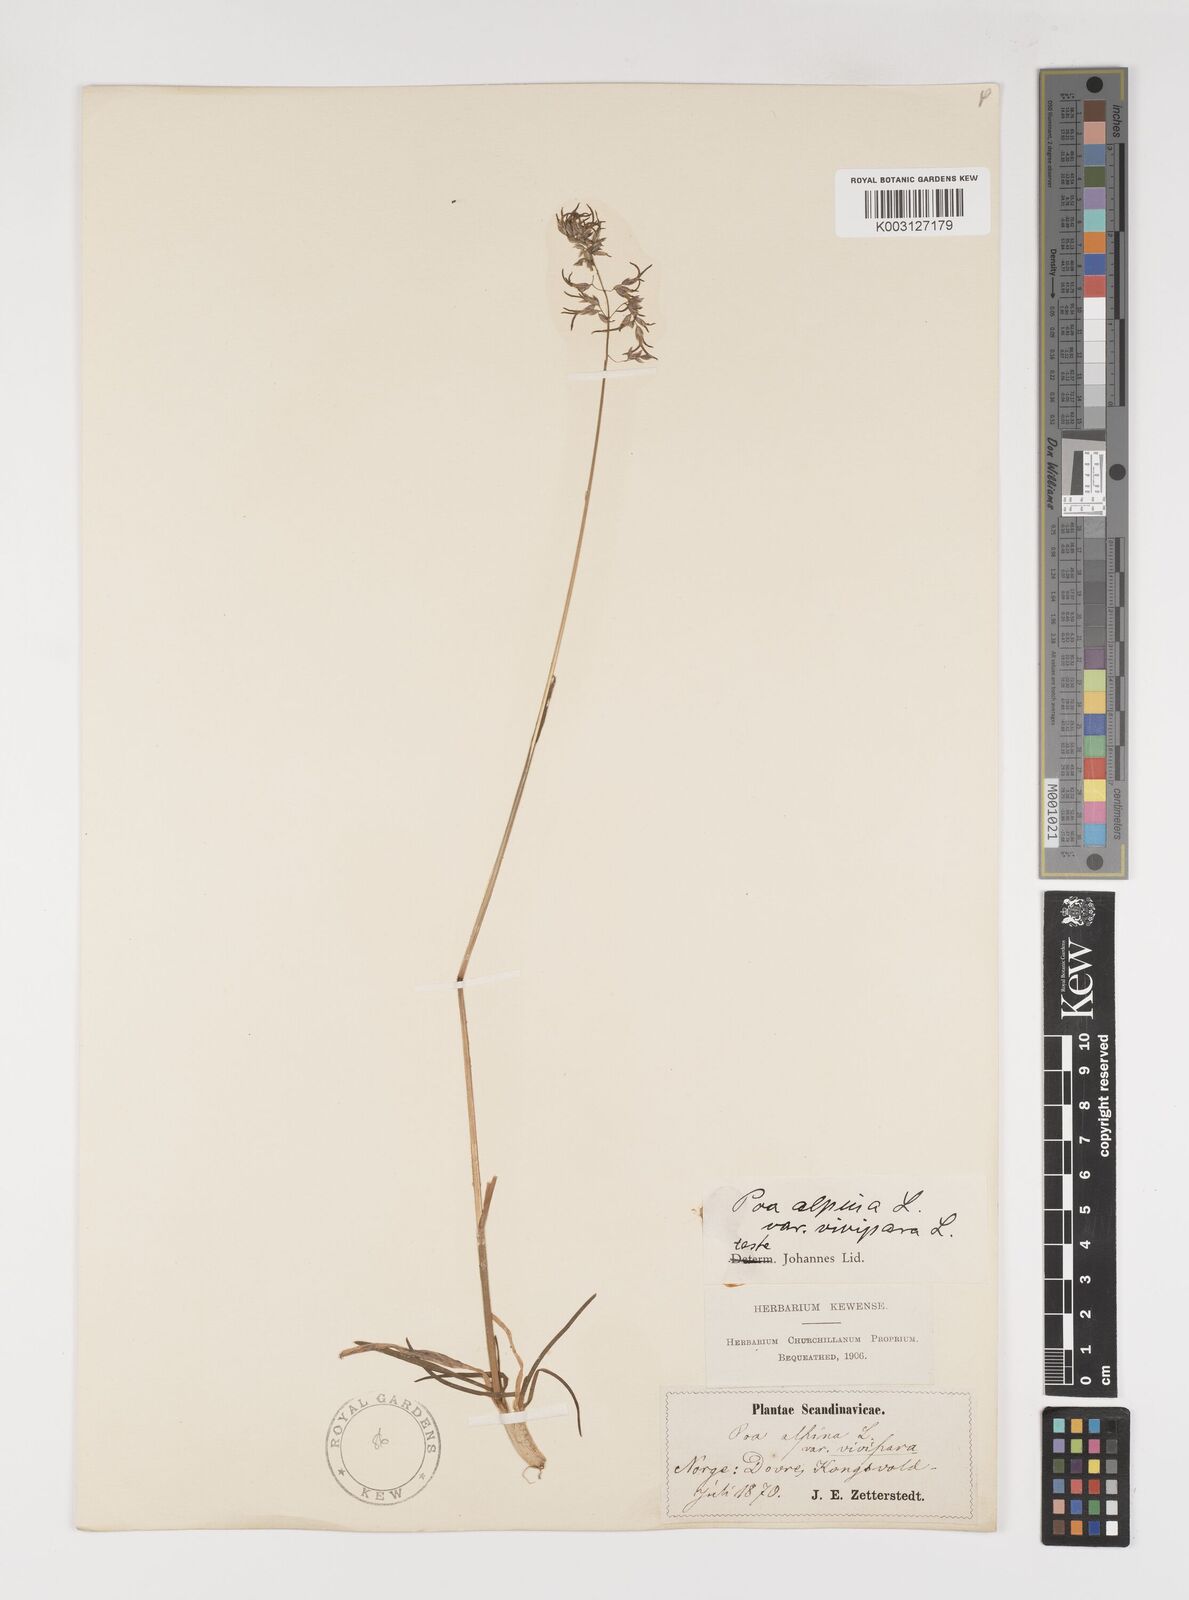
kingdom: Plantae
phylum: Tracheophyta
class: Liliopsida
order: Poales
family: Poaceae
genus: Poa
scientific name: Poa alpina
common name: Alpine bluegrass
